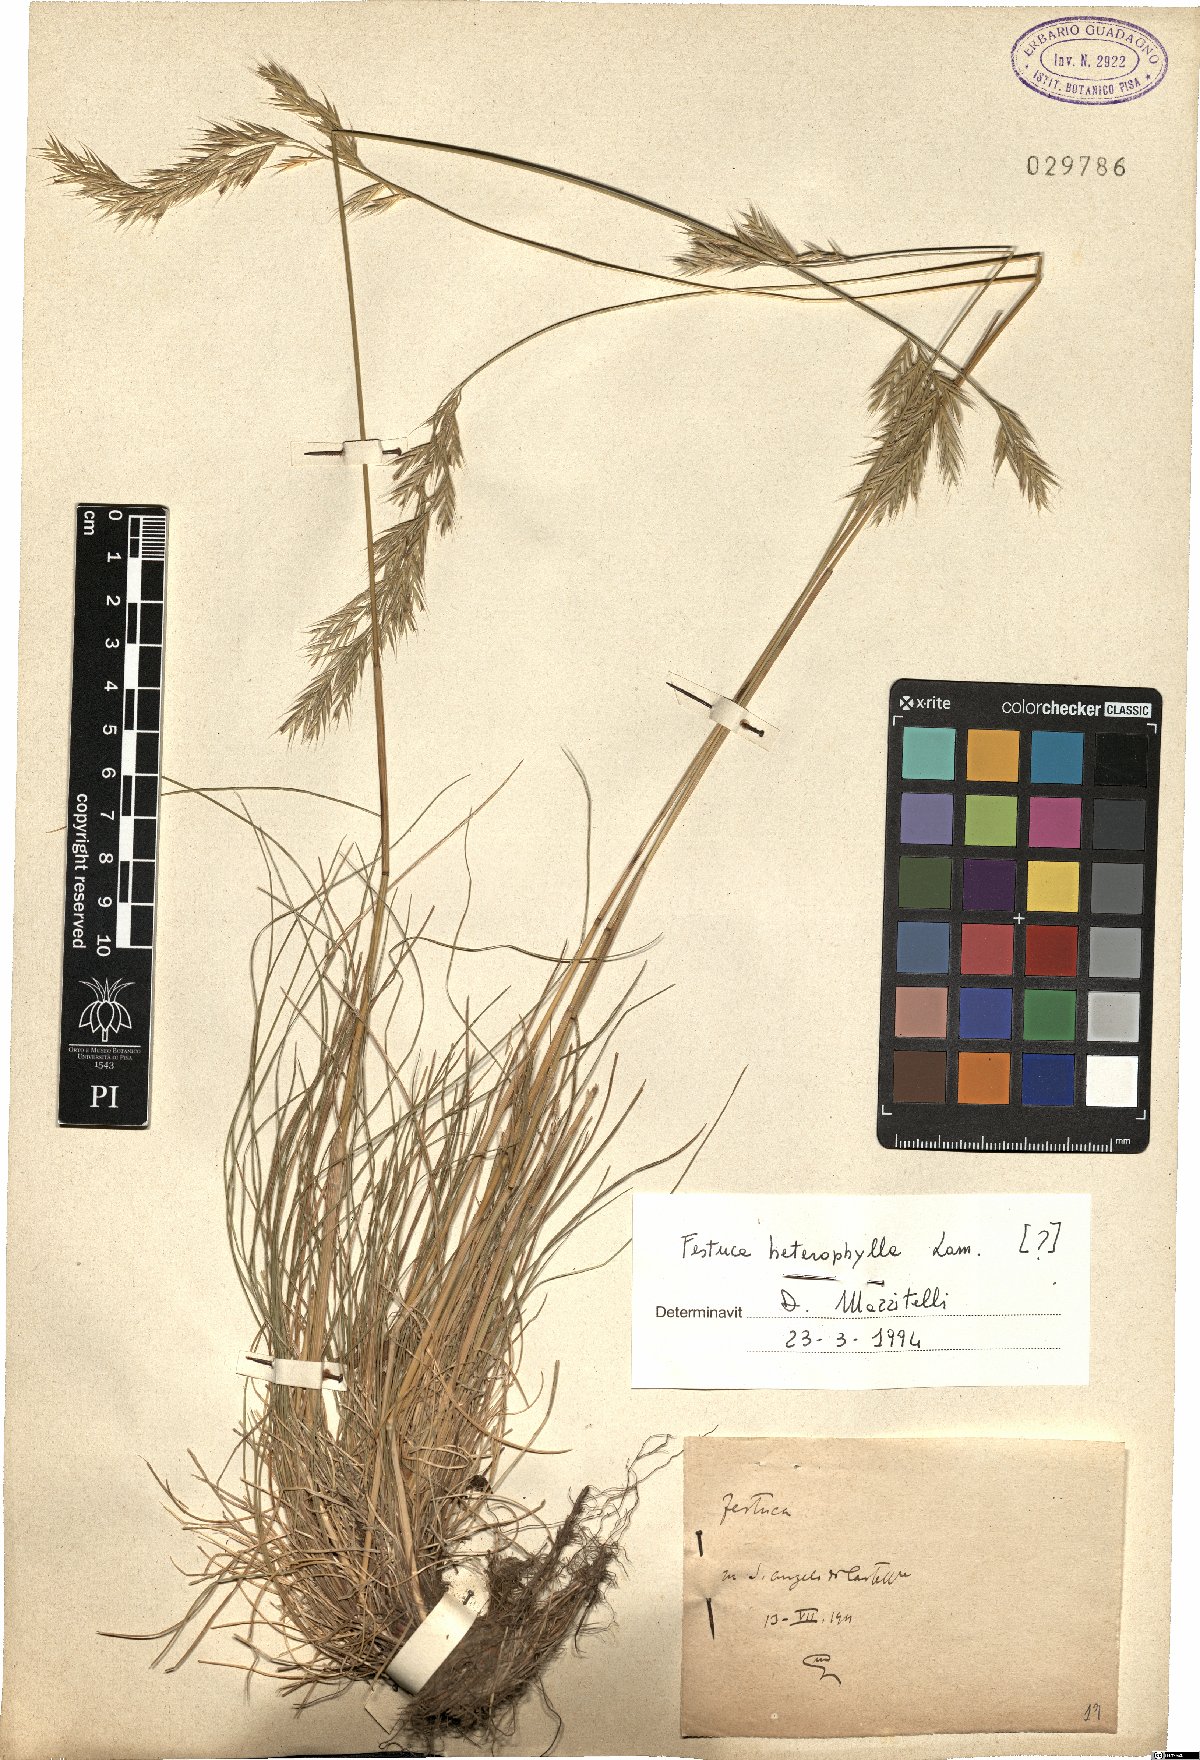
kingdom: Plantae
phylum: Tracheophyta
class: Liliopsida
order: Poales
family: Poaceae
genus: Festuca
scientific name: Festuca heterophylla
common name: Various-leaved fescue
